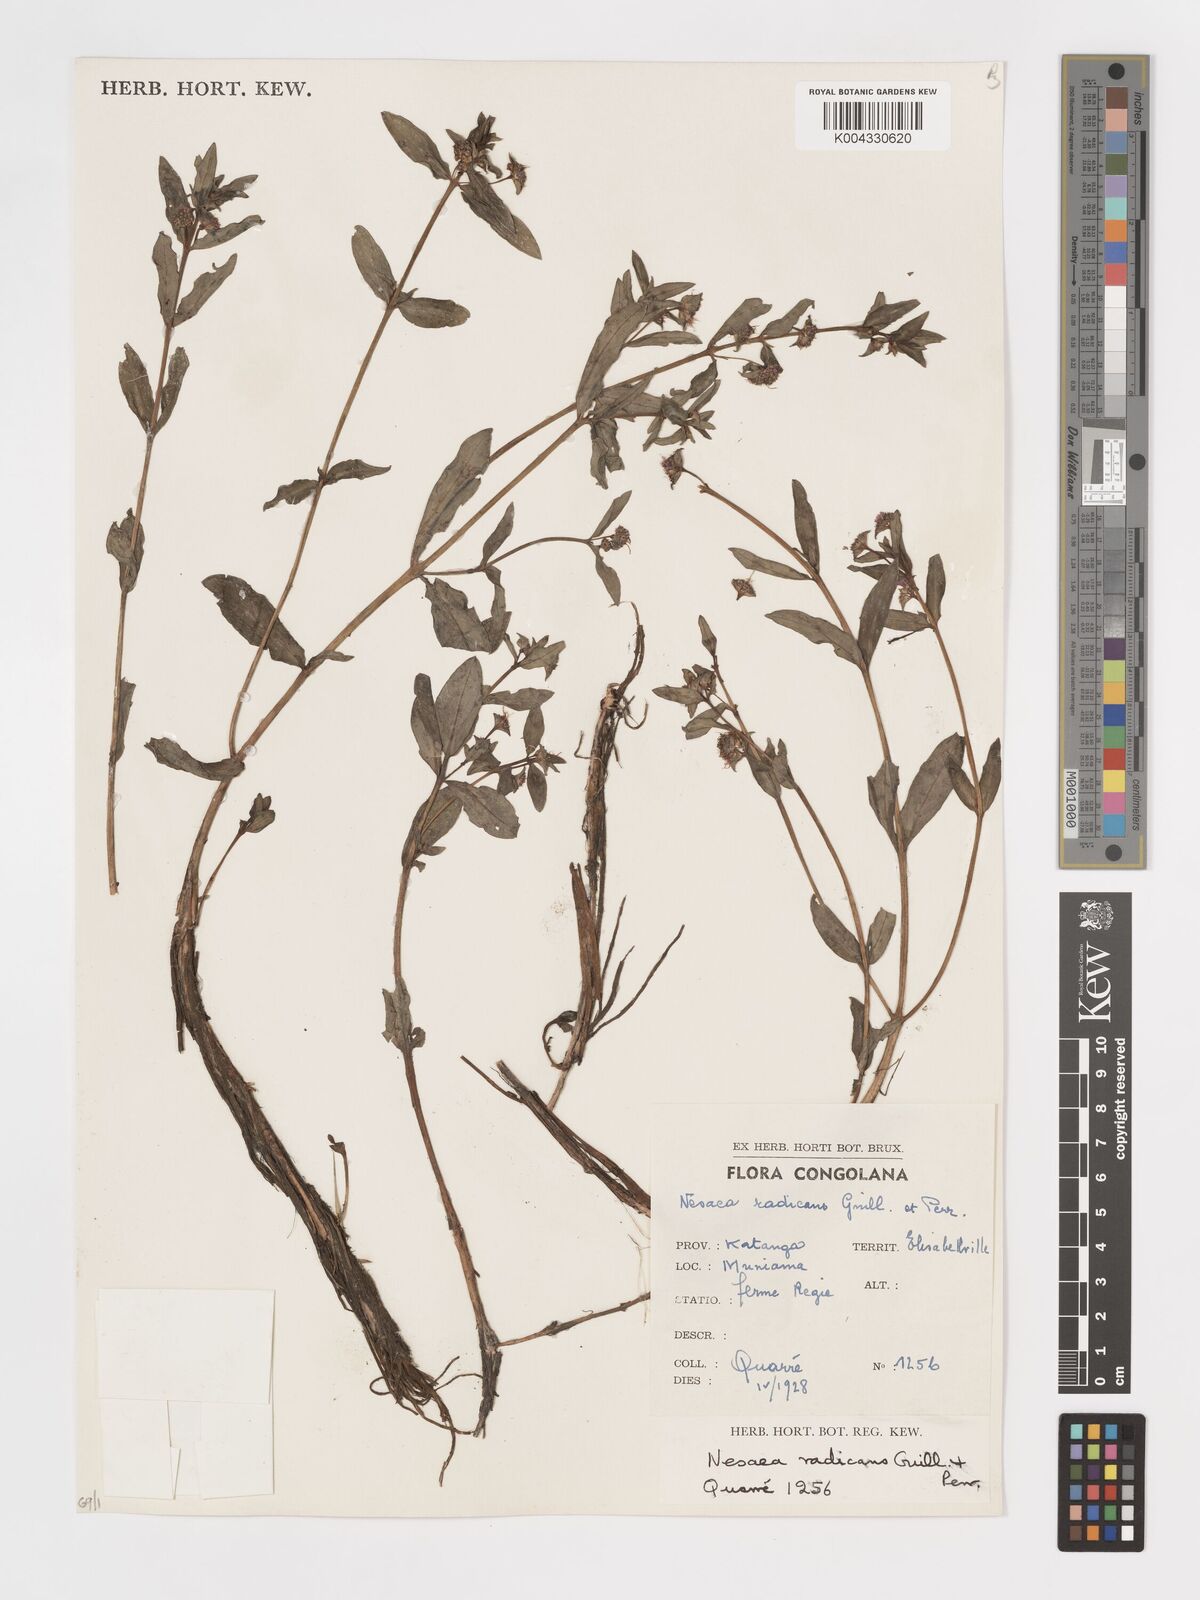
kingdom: Plantae
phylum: Tracheophyta
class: Magnoliopsida
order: Myrtales
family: Lythraceae
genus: Ammannia
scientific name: Ammannia radicans
